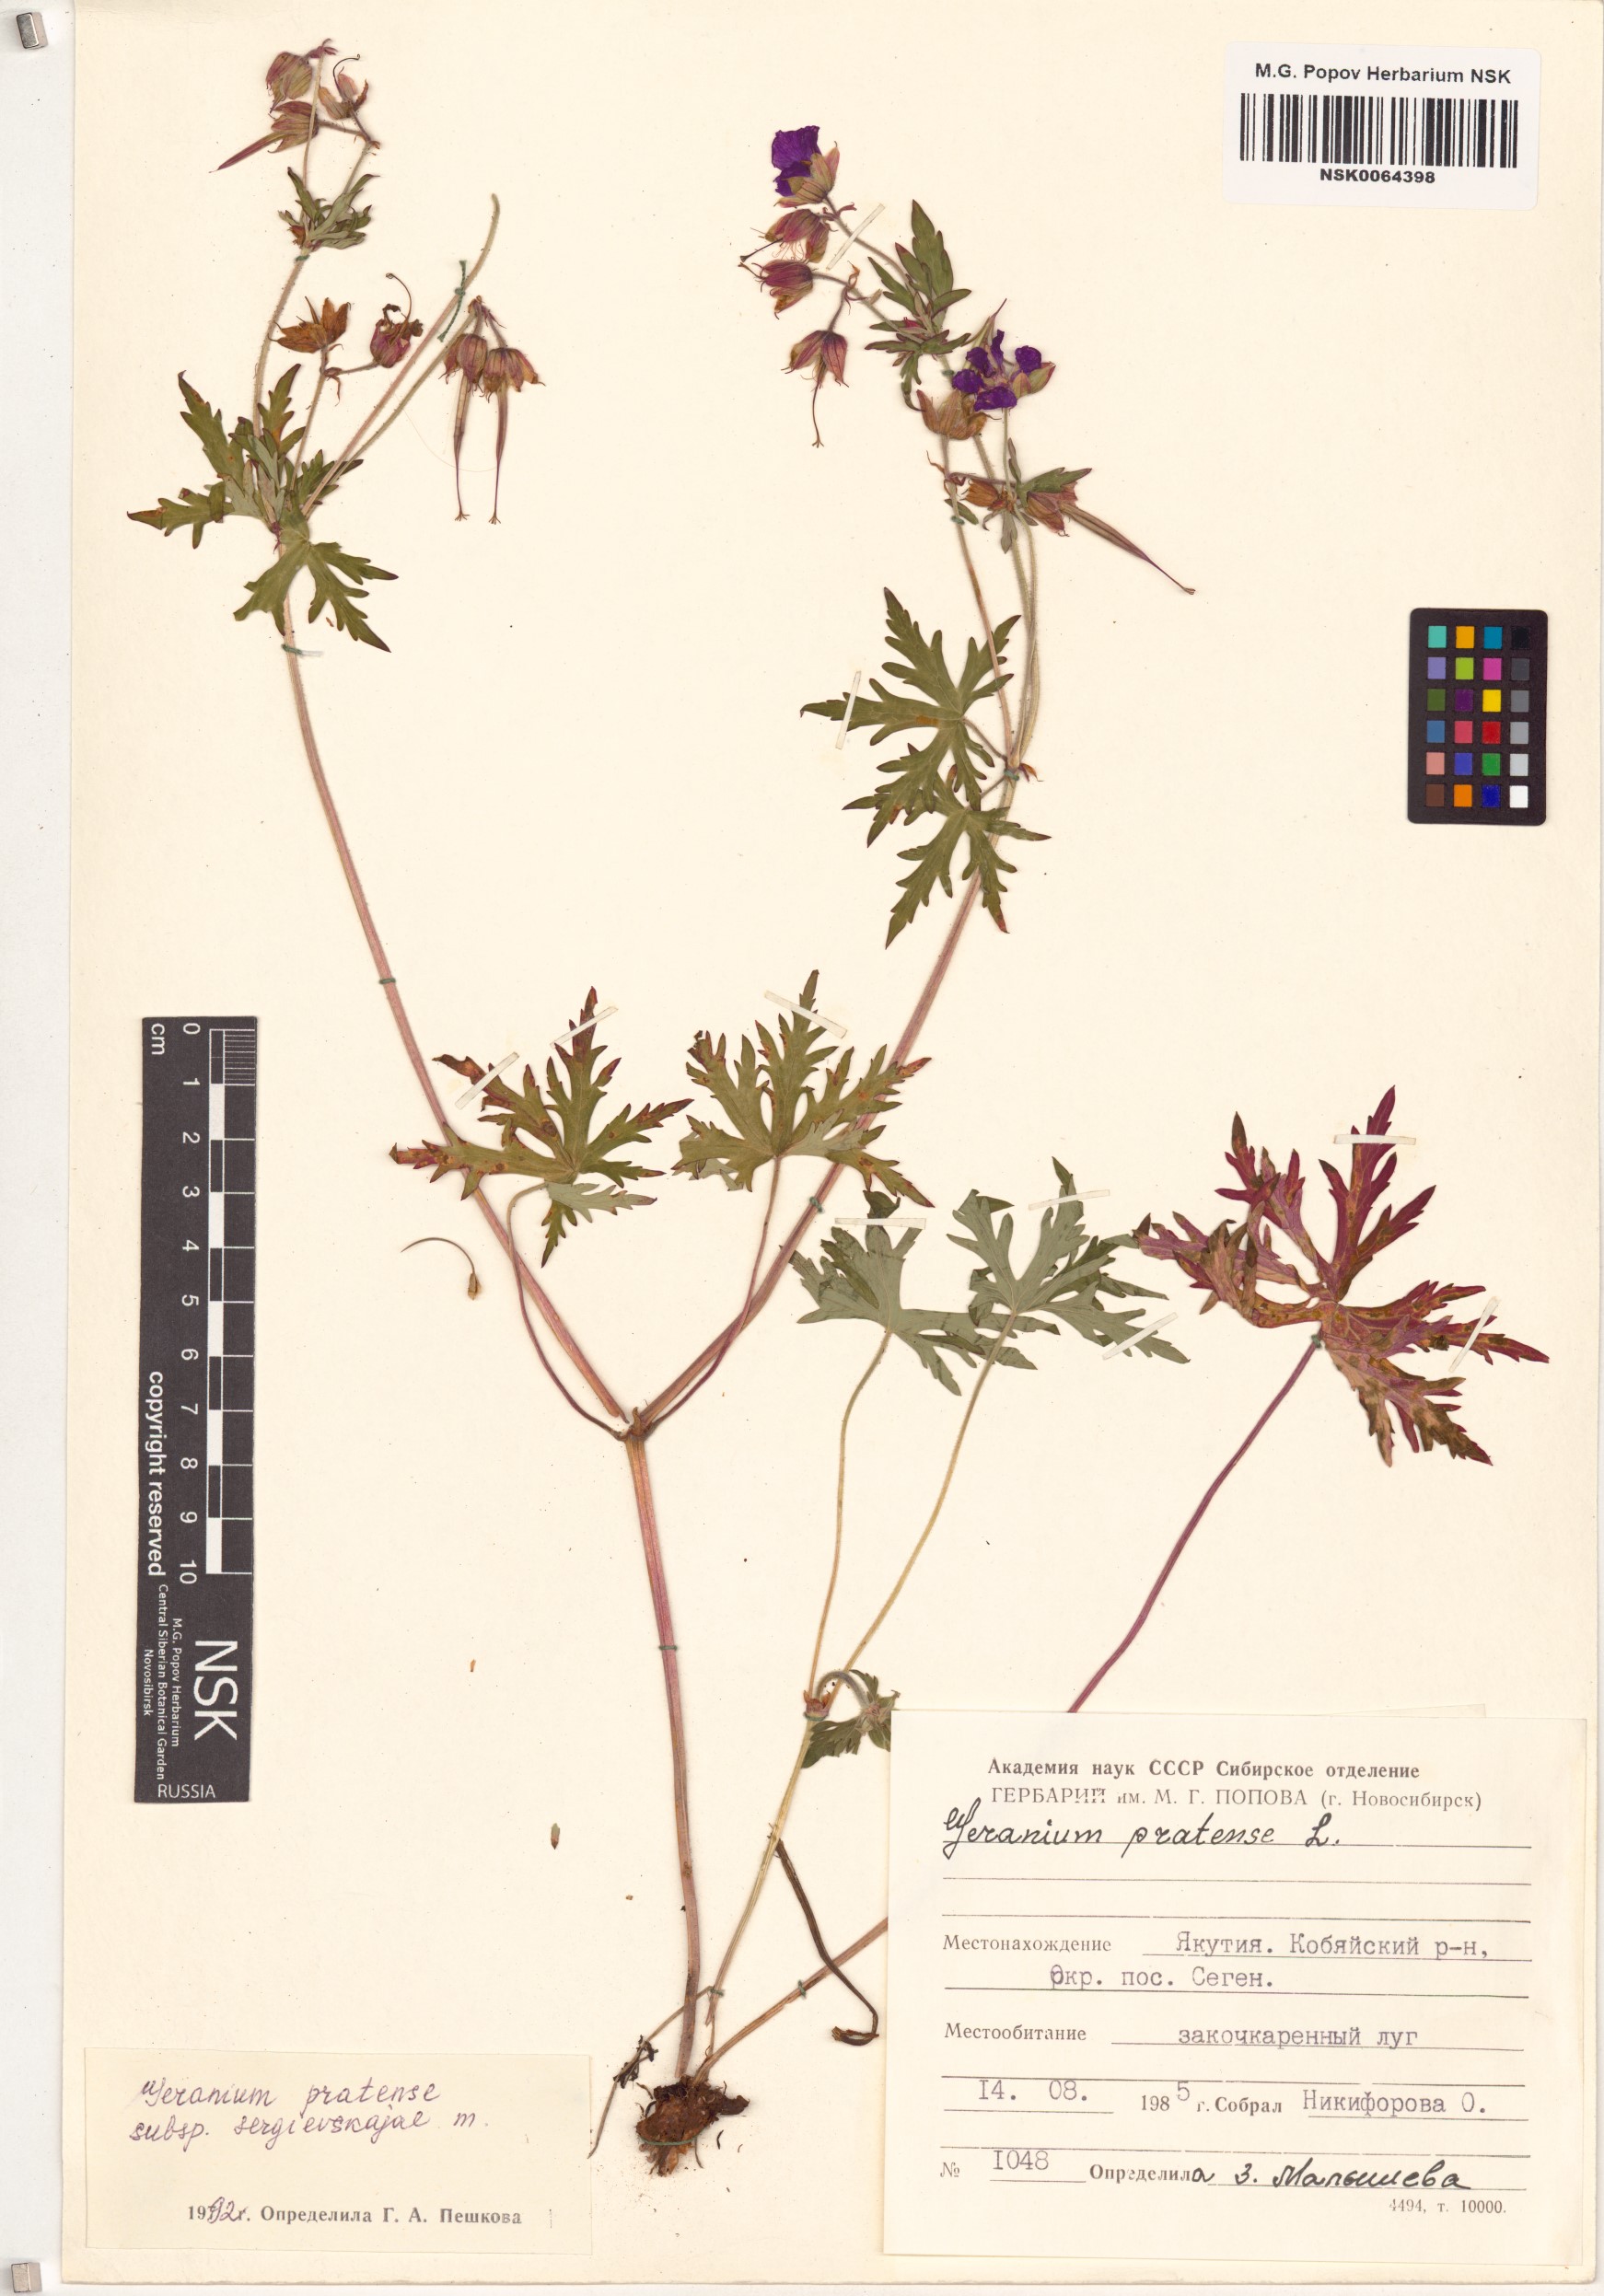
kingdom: Plantae
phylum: Tracheophyta
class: Magnoliopsida
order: Geraniales
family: Geraniaceae
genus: Geranium
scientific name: Geranium pratense
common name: Meadow crane's-bill
